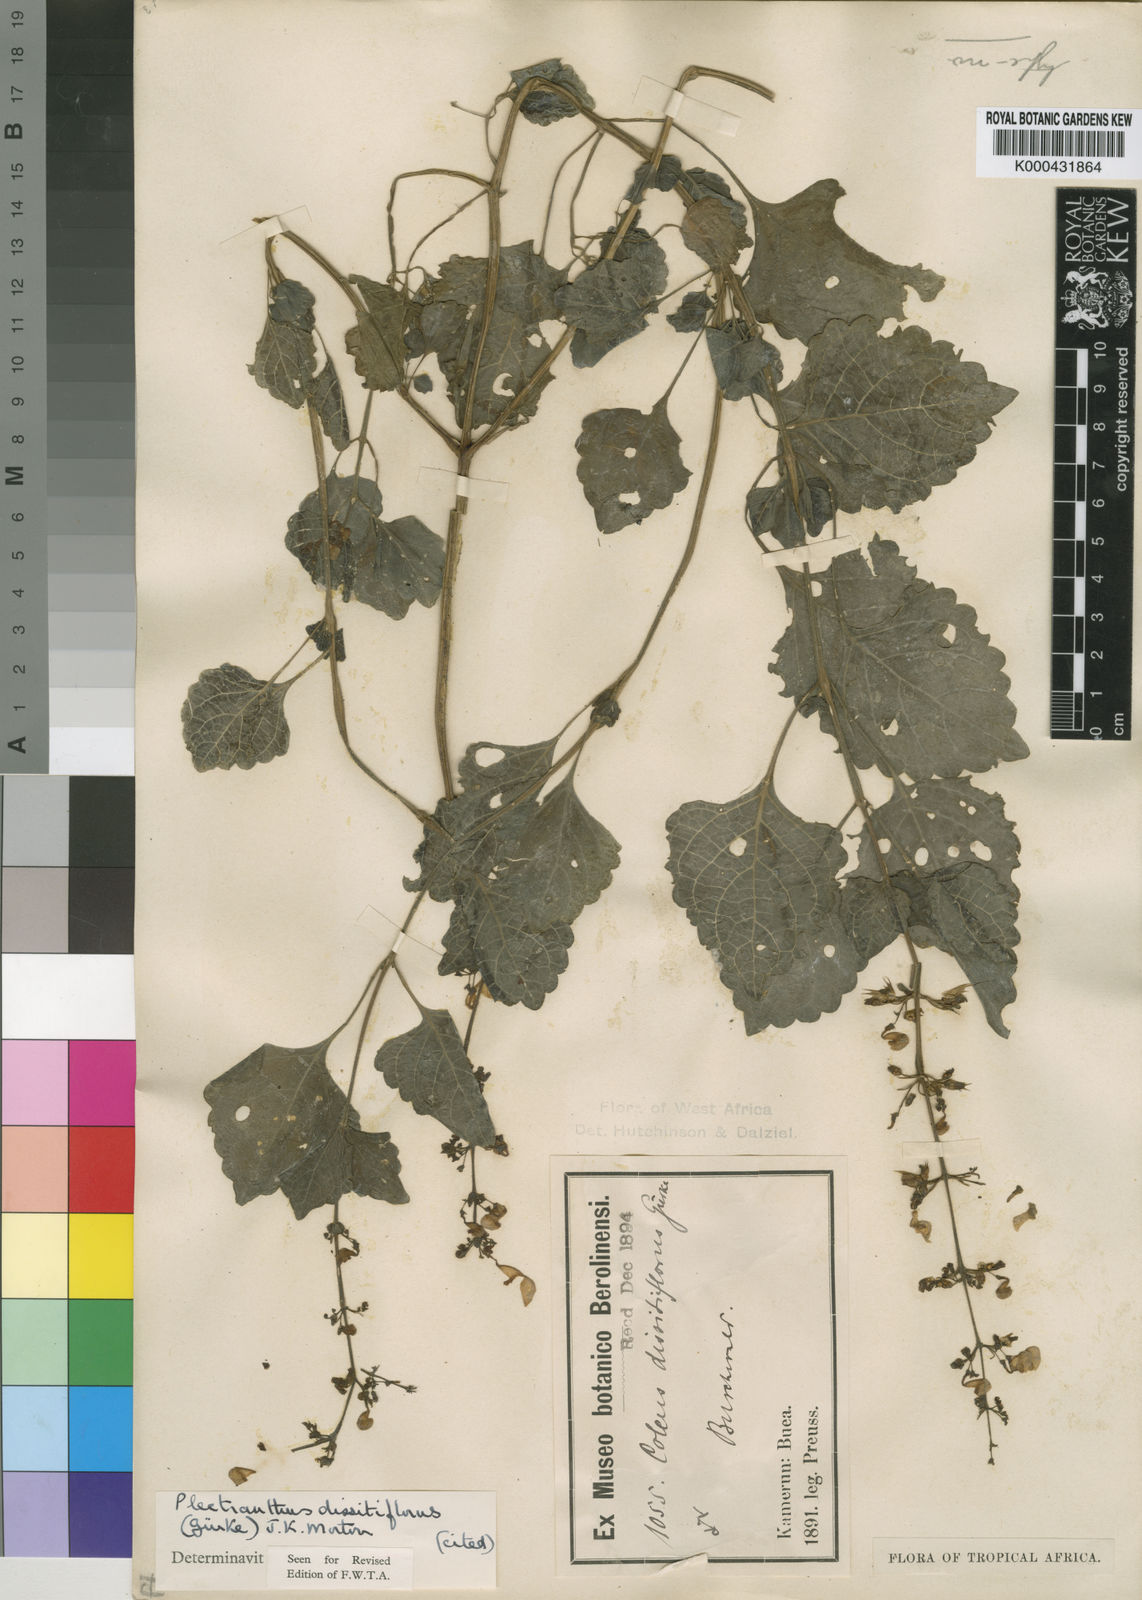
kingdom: Plantae
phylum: Tracheophyta
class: Magnoliopsida
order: Lamiales
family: Lamiaceae
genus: Plectranthus
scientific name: Plectranthus
